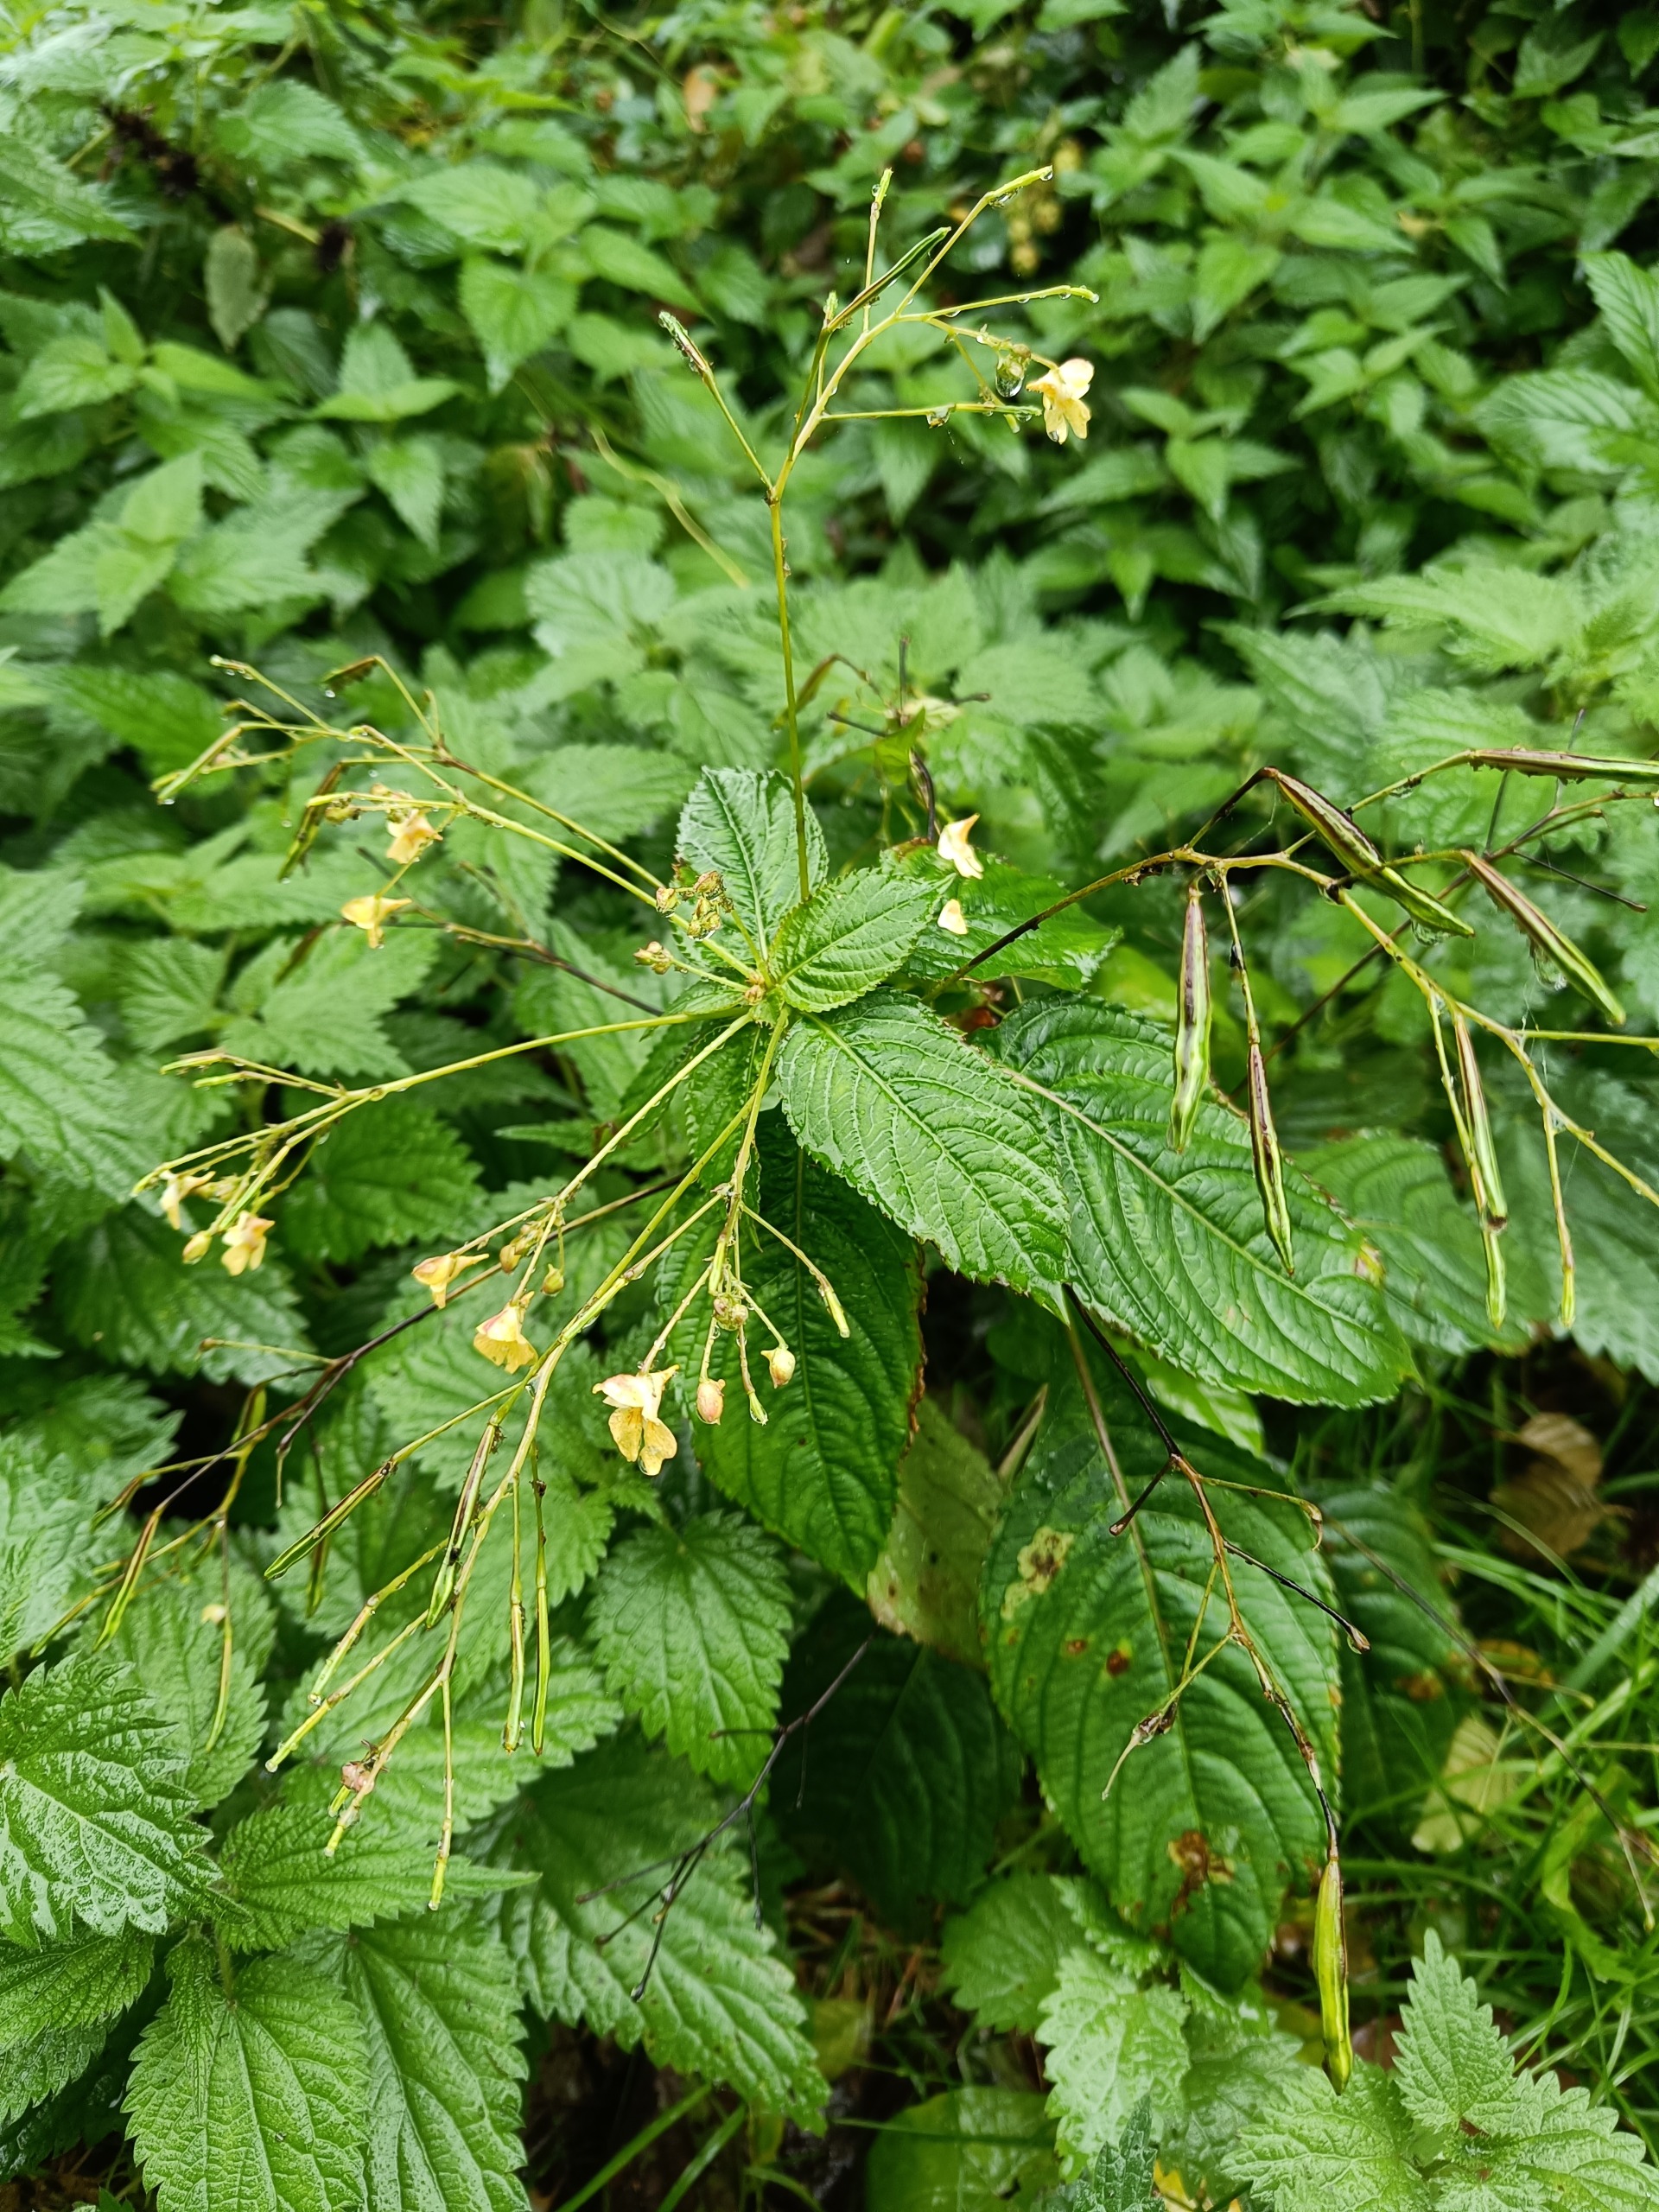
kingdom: Plantae
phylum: Tracheophyta
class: Magnoliopsida
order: Ericales
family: Balsaminaceae
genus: Impatiens
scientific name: Impatiens parviflora
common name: Småblomstret balsamin
